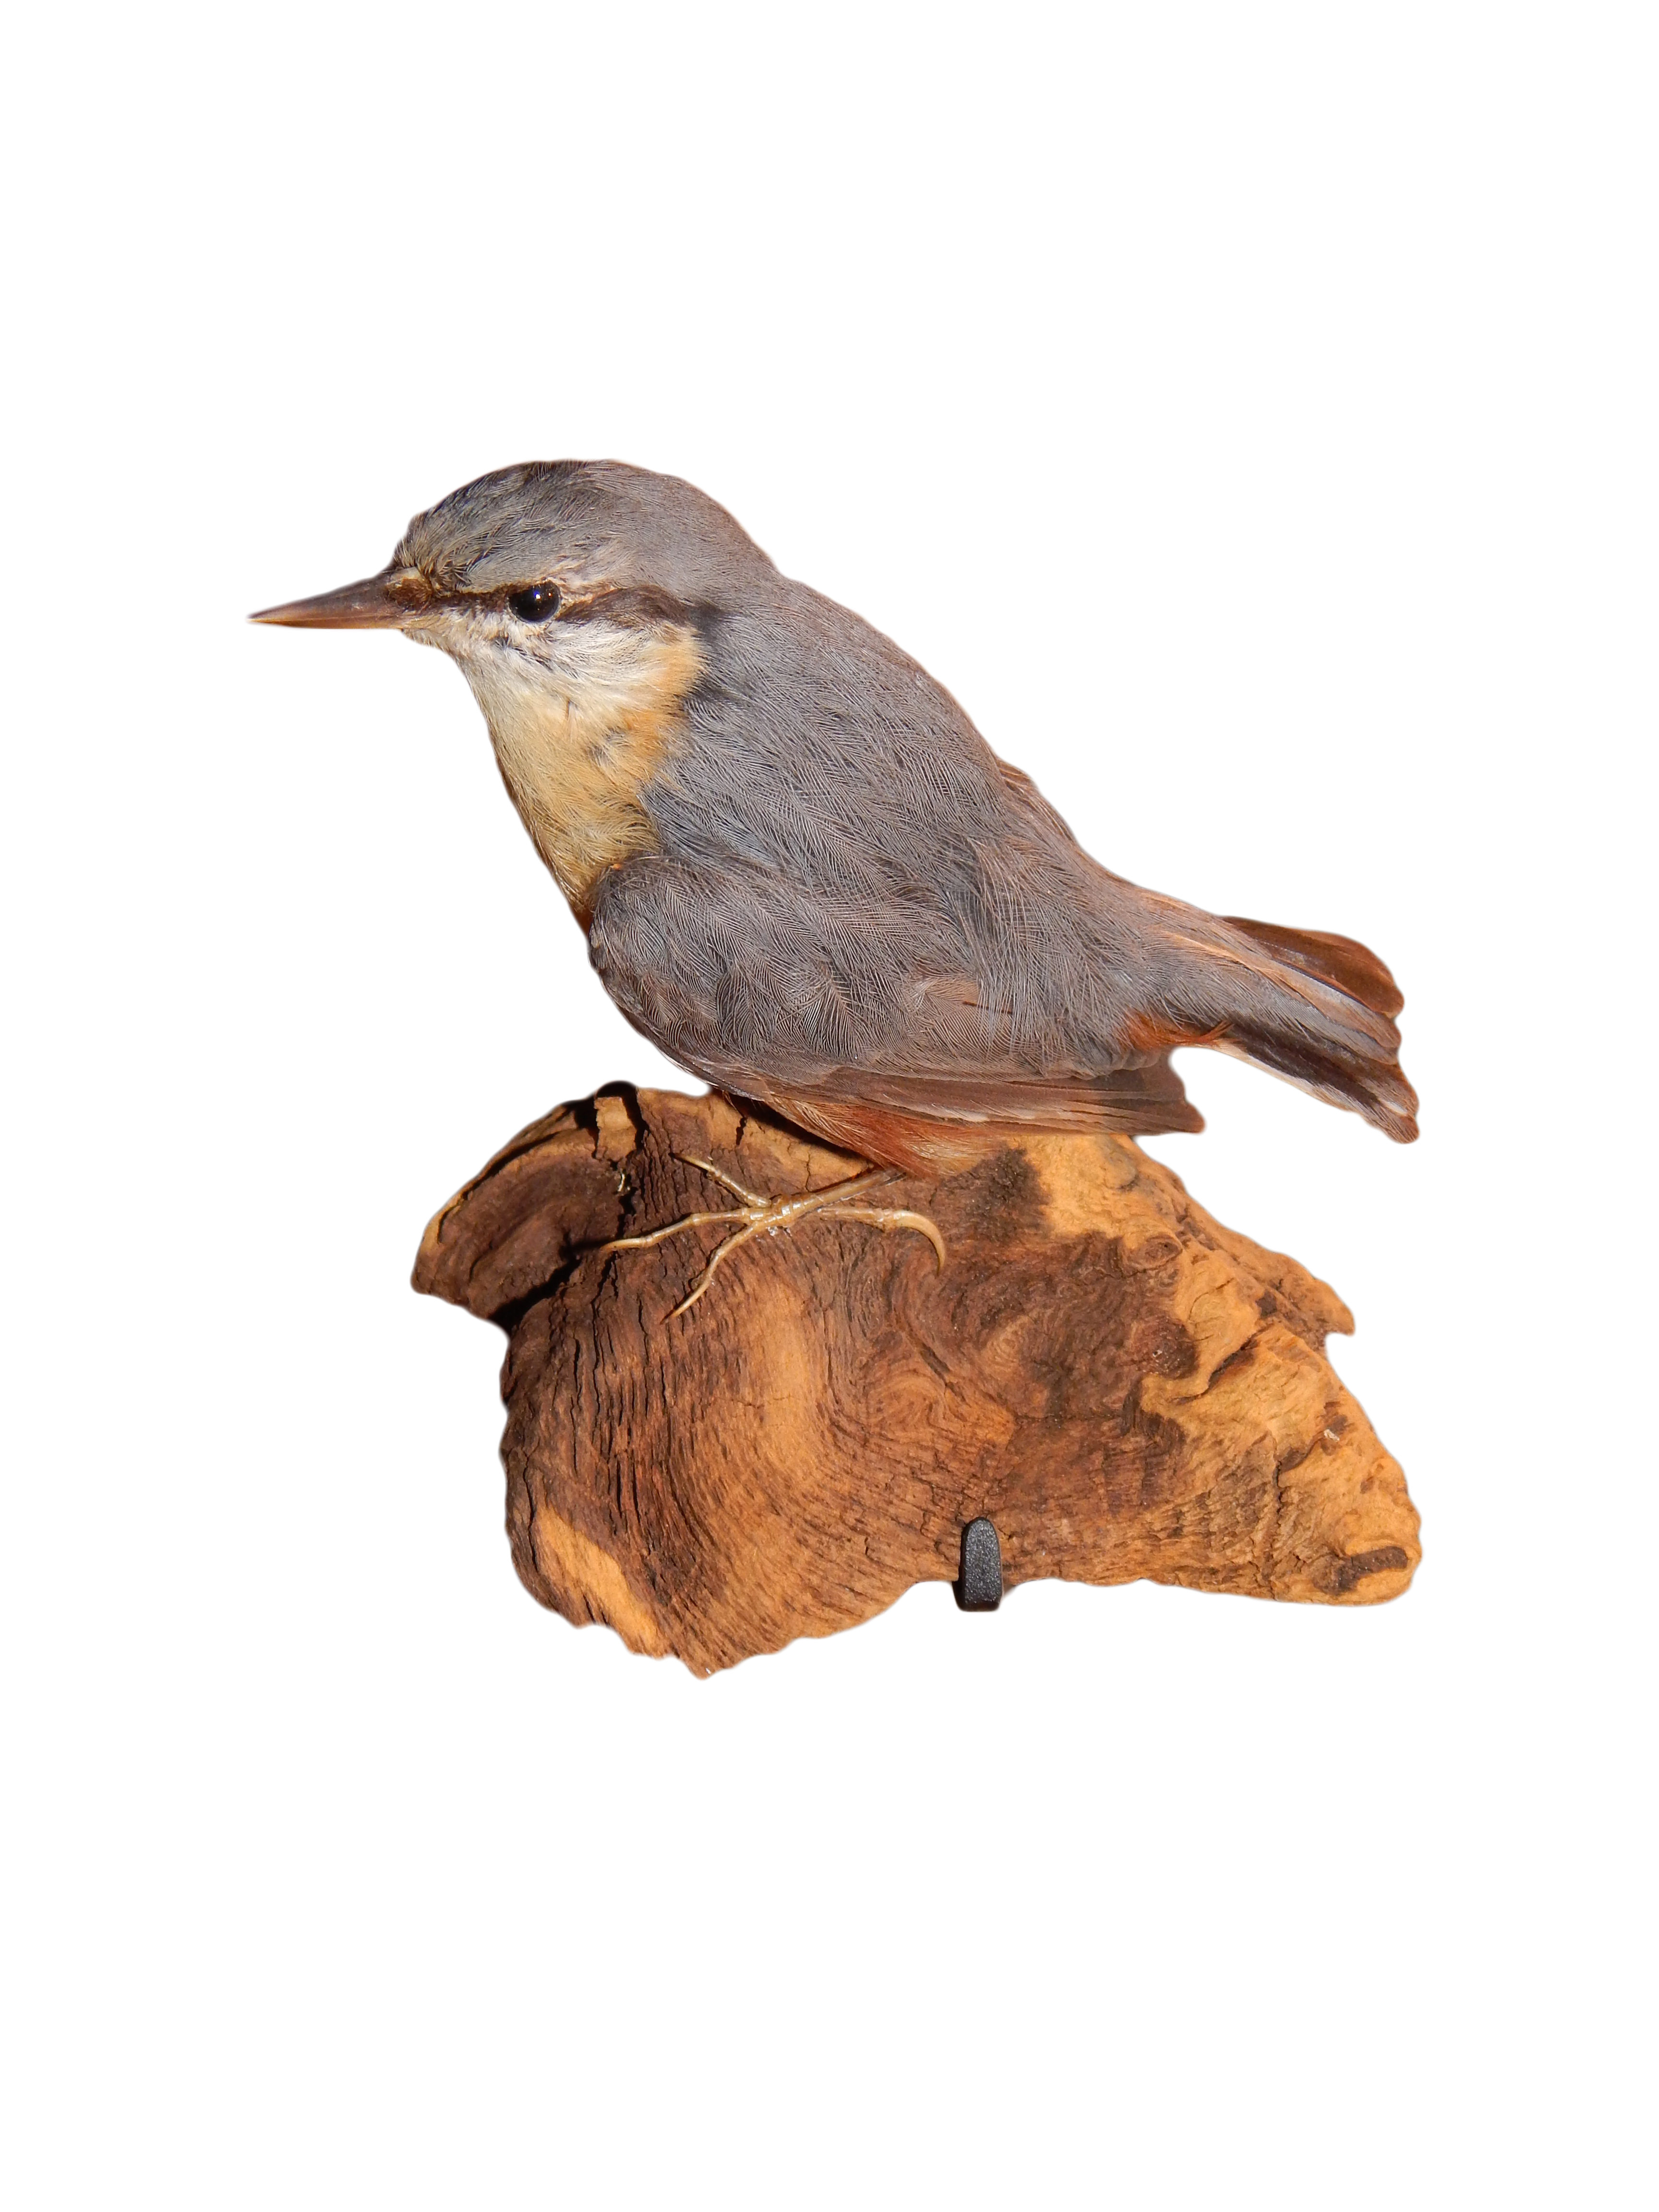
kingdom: Animalia
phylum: Chordata
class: Aves
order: Passeriformes
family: Sittidae
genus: Sitta
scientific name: Sitta europaea
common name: Eurasian nuthatch
